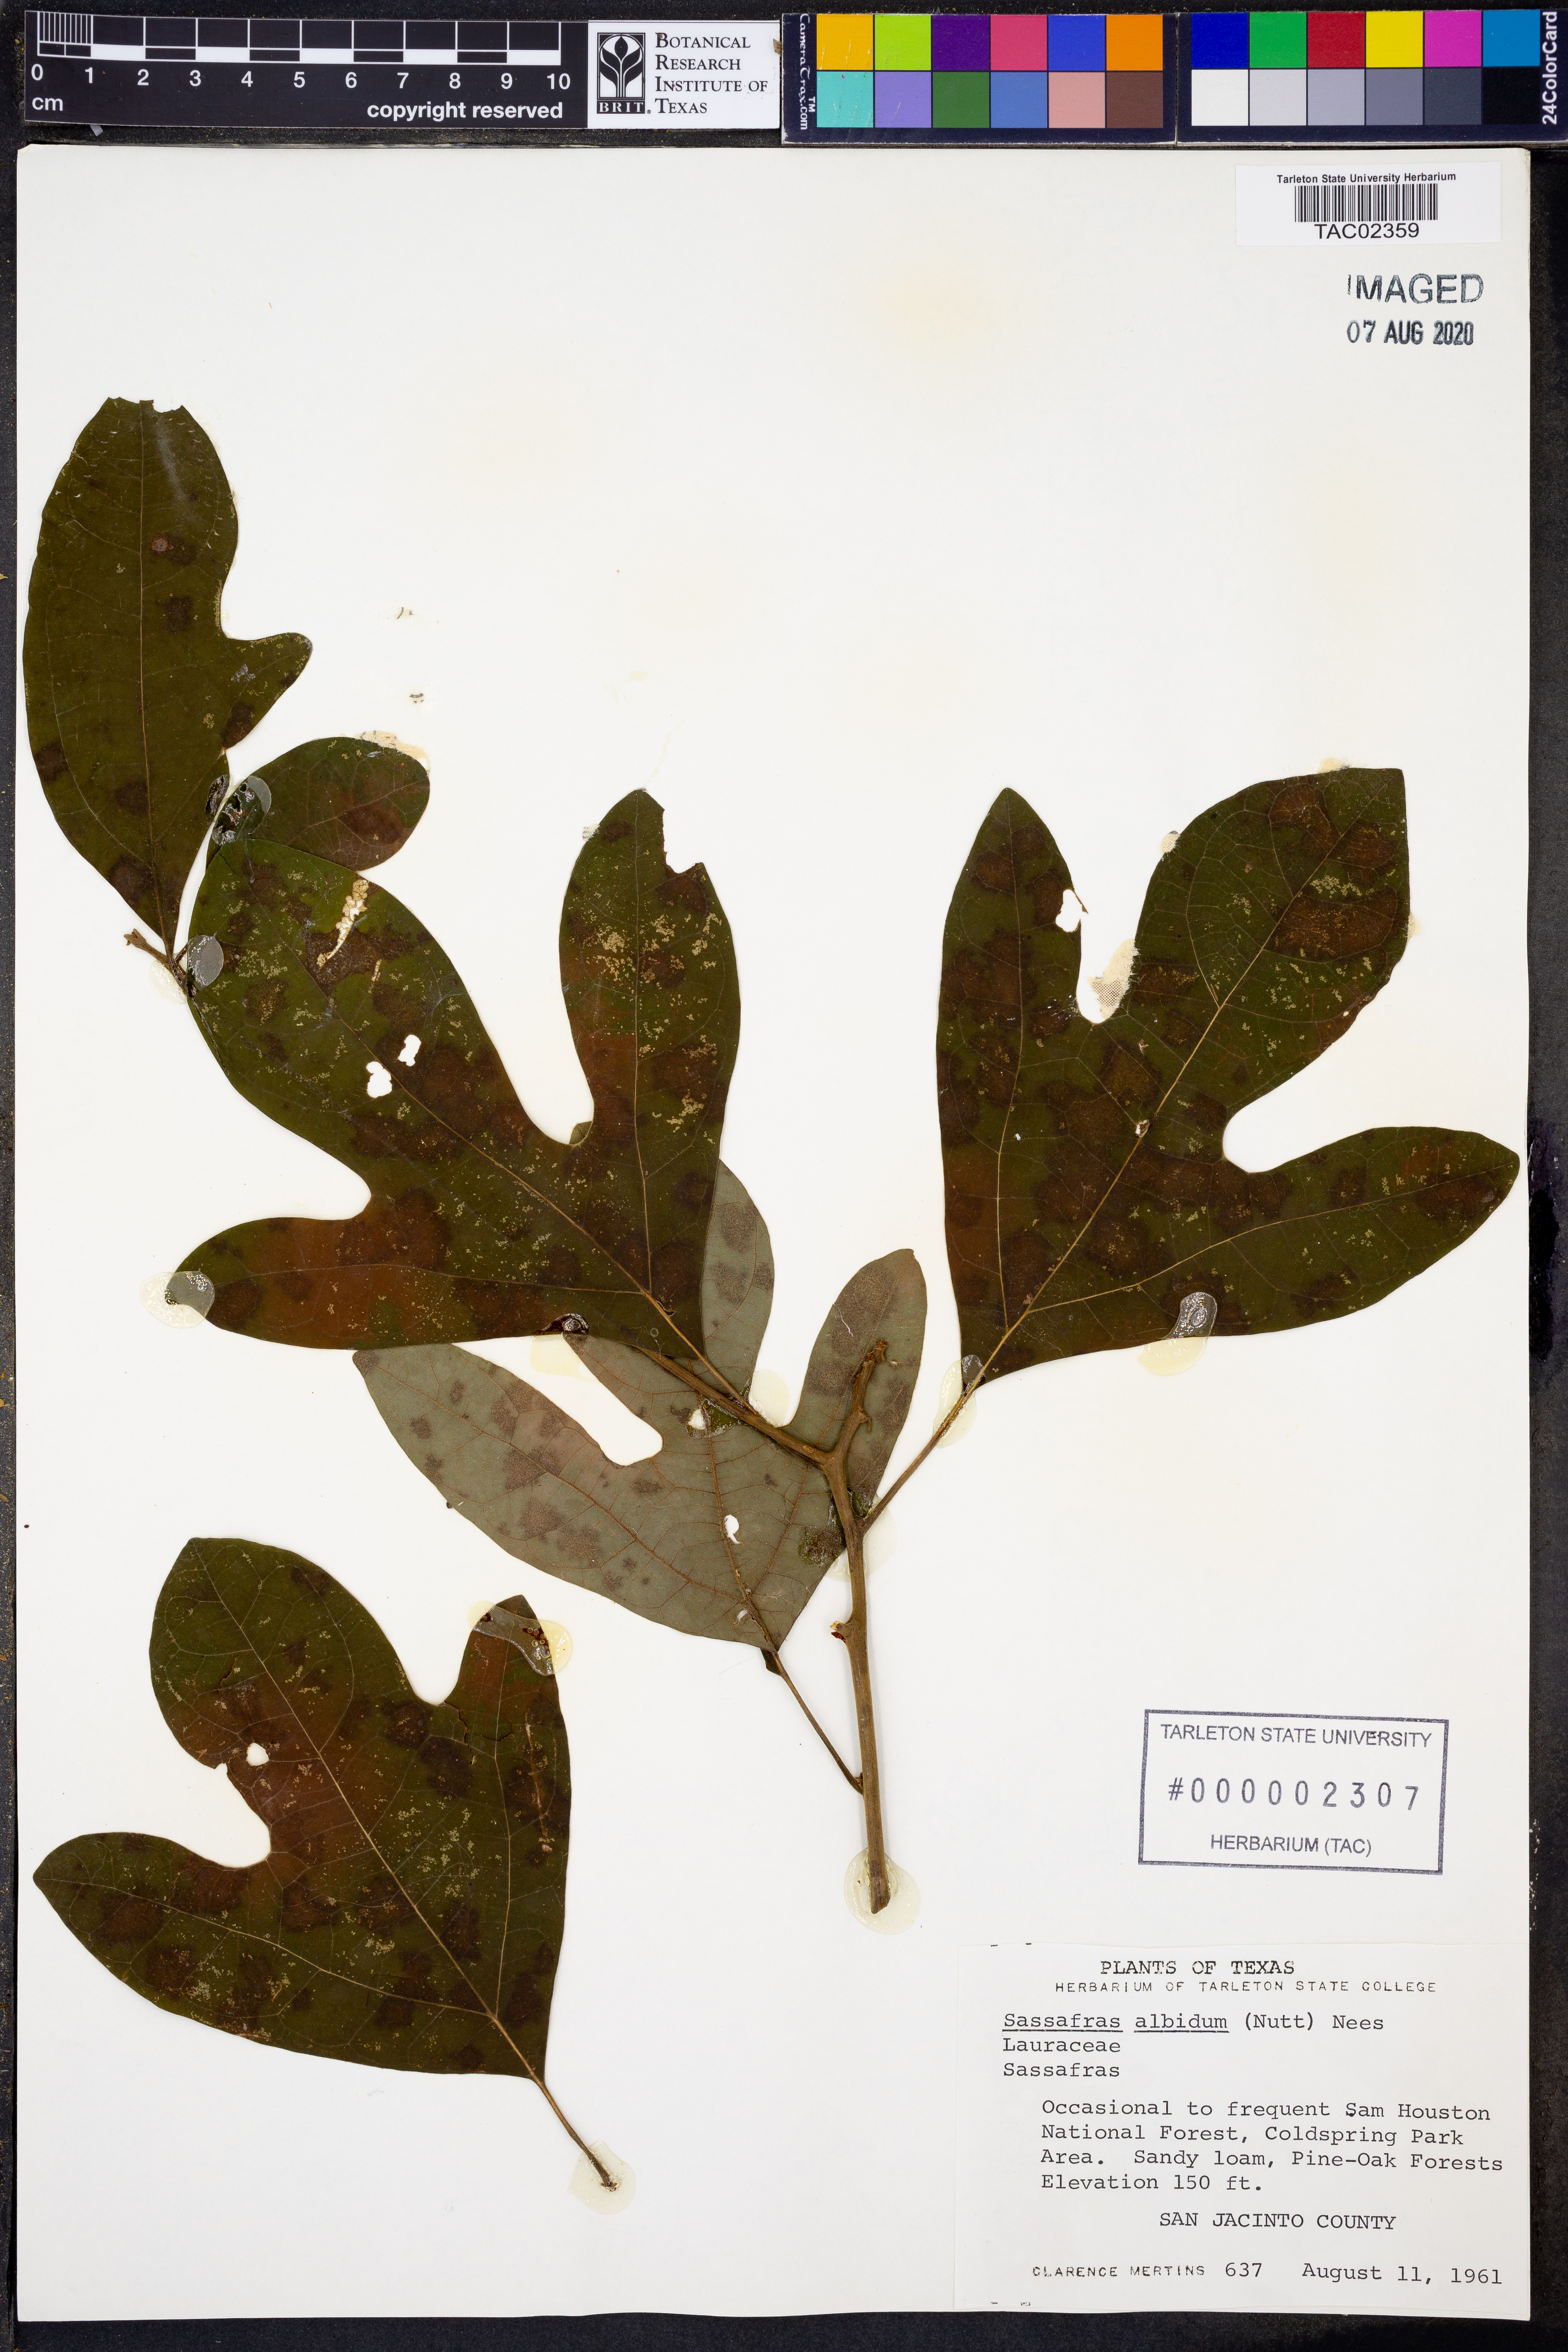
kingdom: Plantae
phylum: Tracheophyta
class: Magnoliopsida
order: Laurales
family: Lauraceae
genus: Sassafras
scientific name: Sassafras albidum
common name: Sassafras
